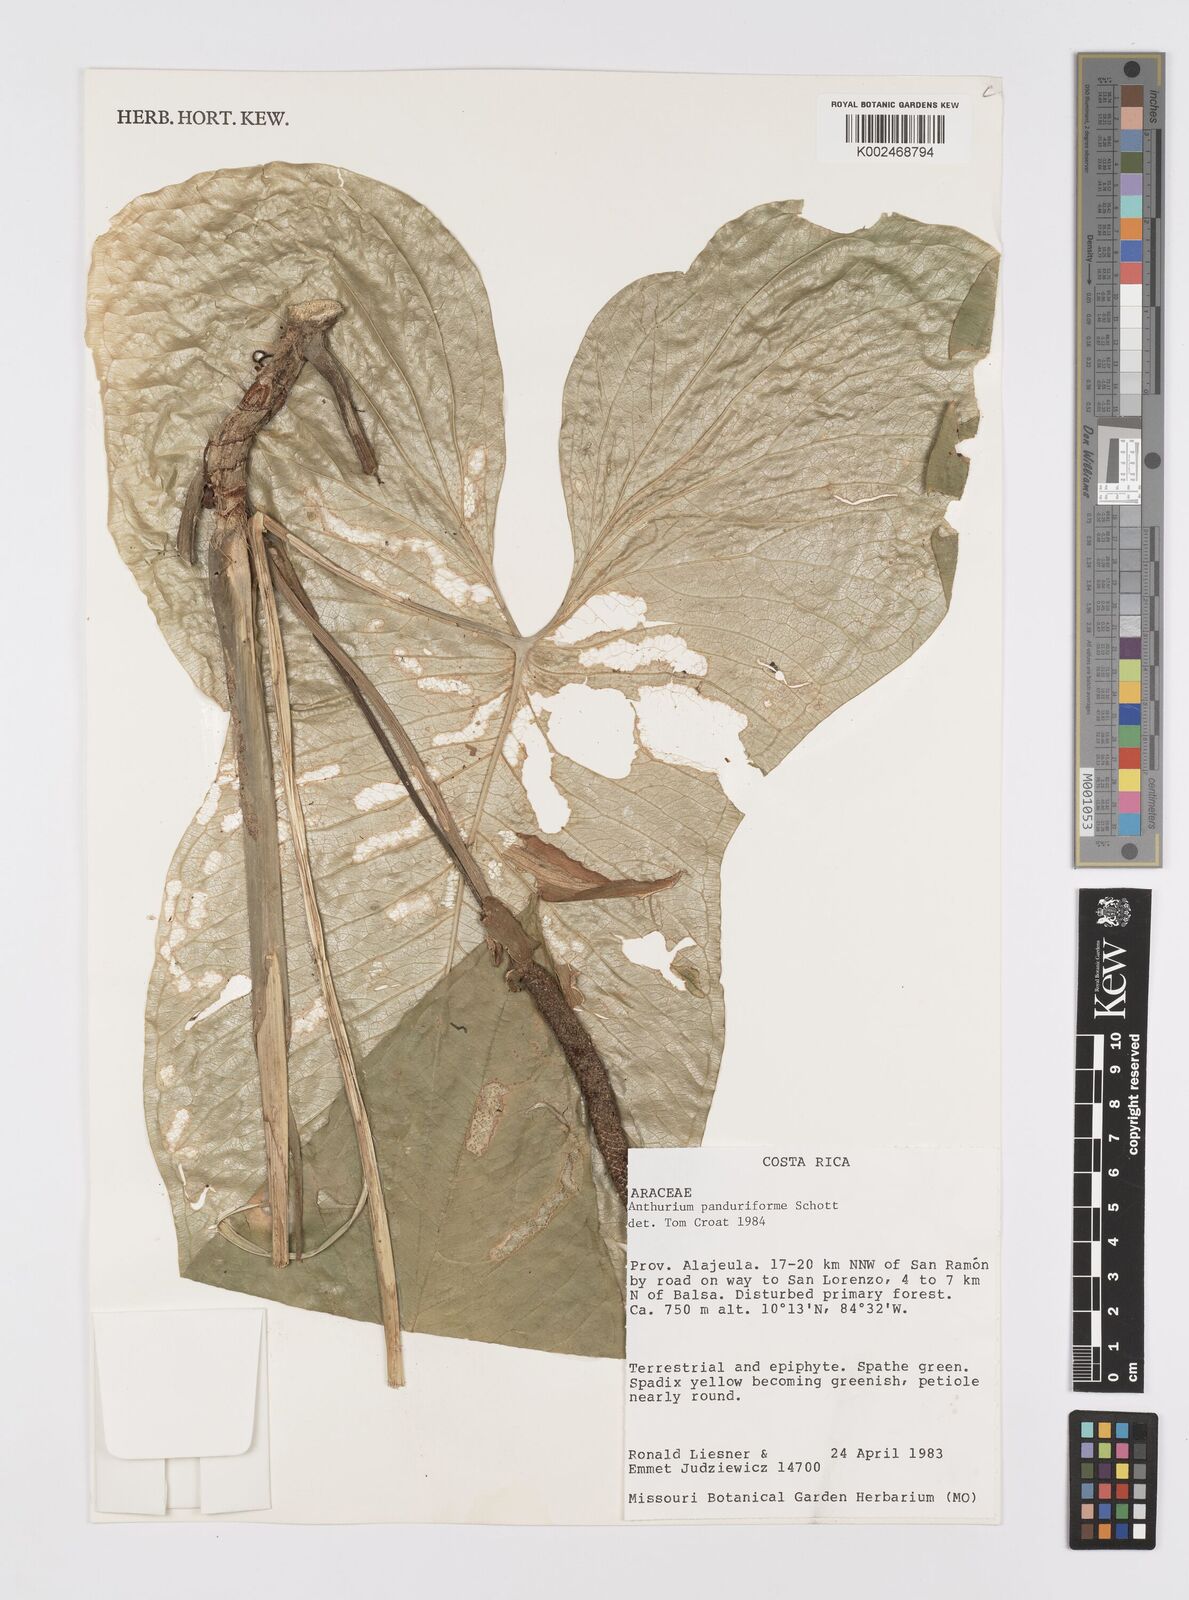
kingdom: Plantae
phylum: Tracheophyta
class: Liliopsida
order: Alismatales
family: Araceae
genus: Anthurium
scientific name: Anthurium panduriforme
